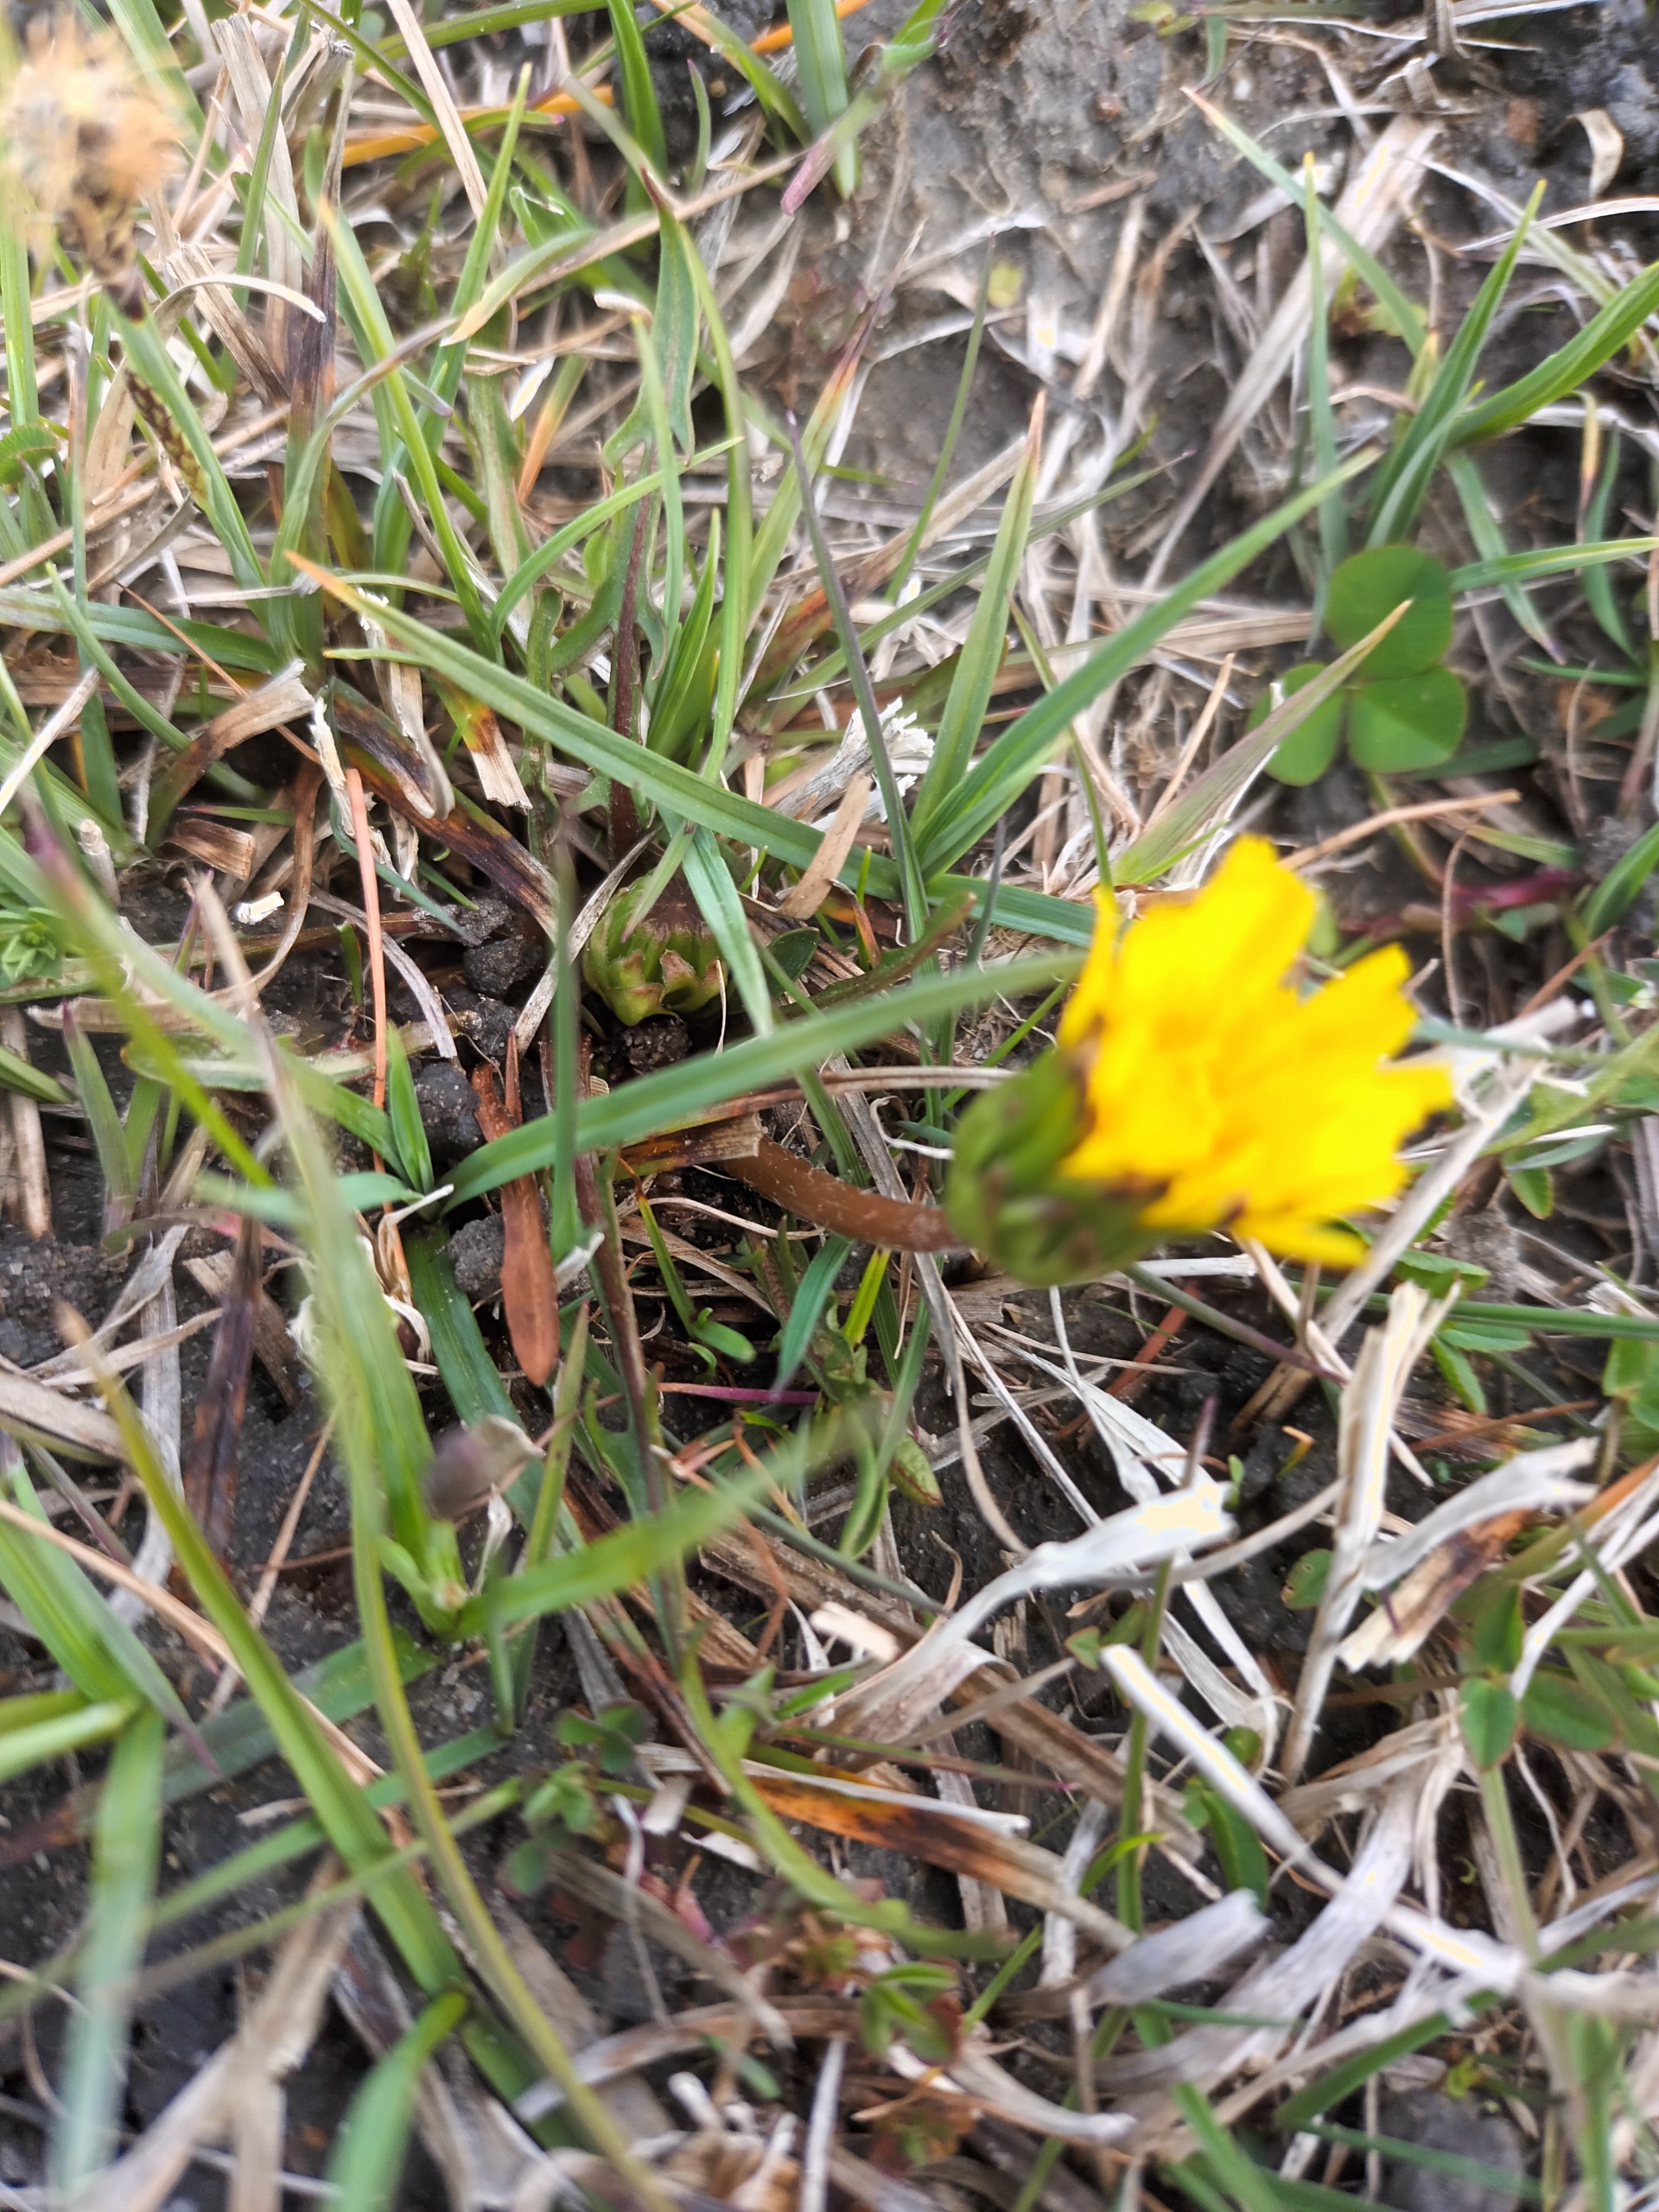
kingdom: Plantae
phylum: Tracheophyta
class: Magnoliopsida
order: Asterales
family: Asteraceae
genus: Taraxacum
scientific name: Taraxacum balticum
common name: Salt-kalkmælkebøtte
